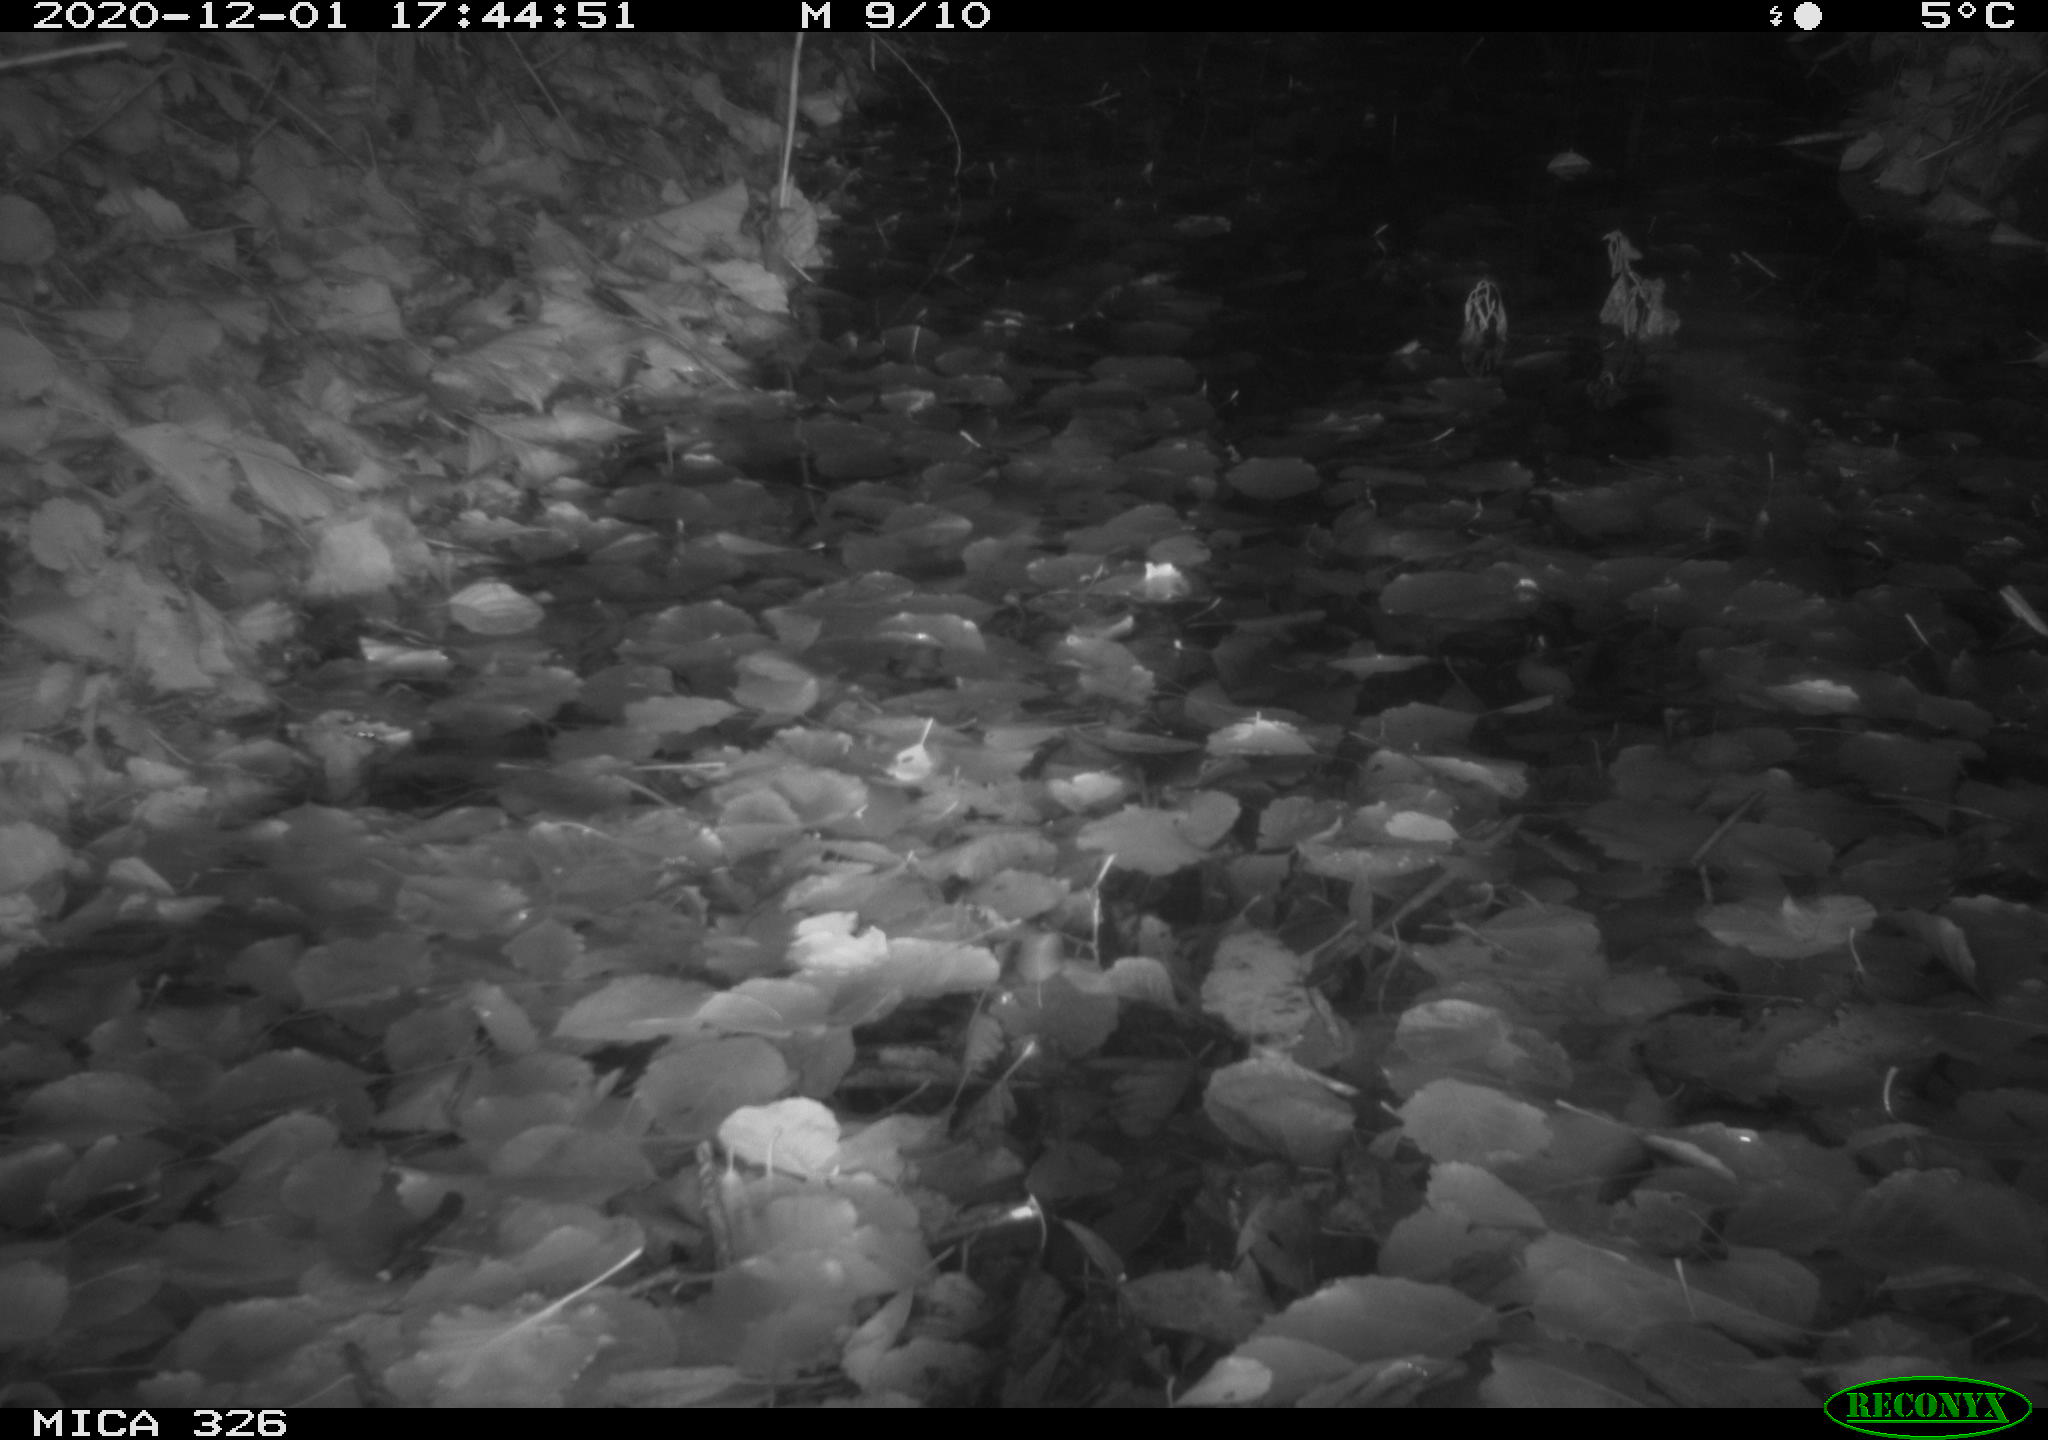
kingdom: Animalia
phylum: Chordata
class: Mammalia
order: Rodentia
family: Muridae
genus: Rattus
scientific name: Rattus norvegicus
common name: Brown rat
